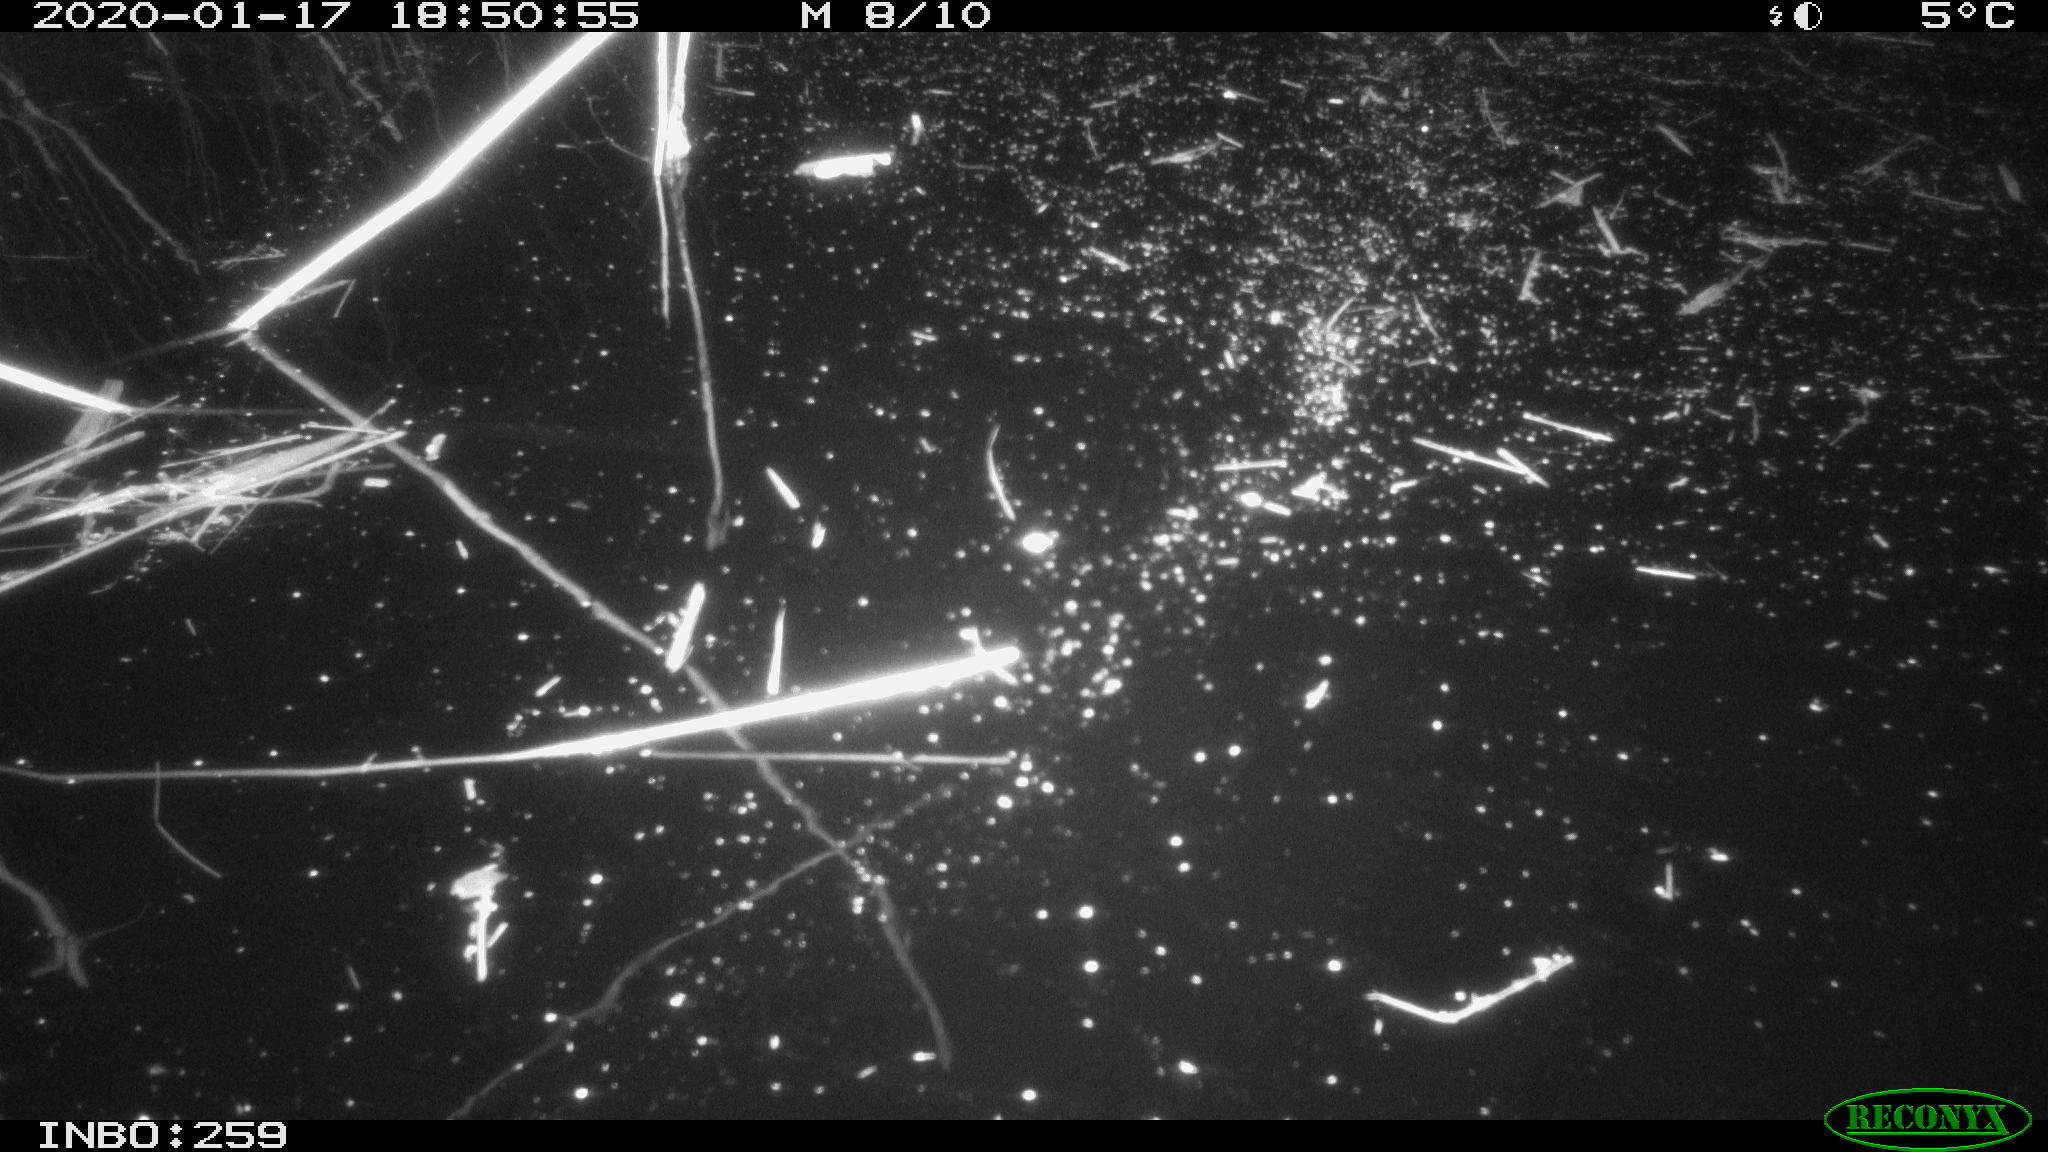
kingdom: Animalia
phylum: Chordata
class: Aves
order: Gruiformes
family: Rallidae
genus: Gallinula
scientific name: Gallinula chloropus
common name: Common moorhen
